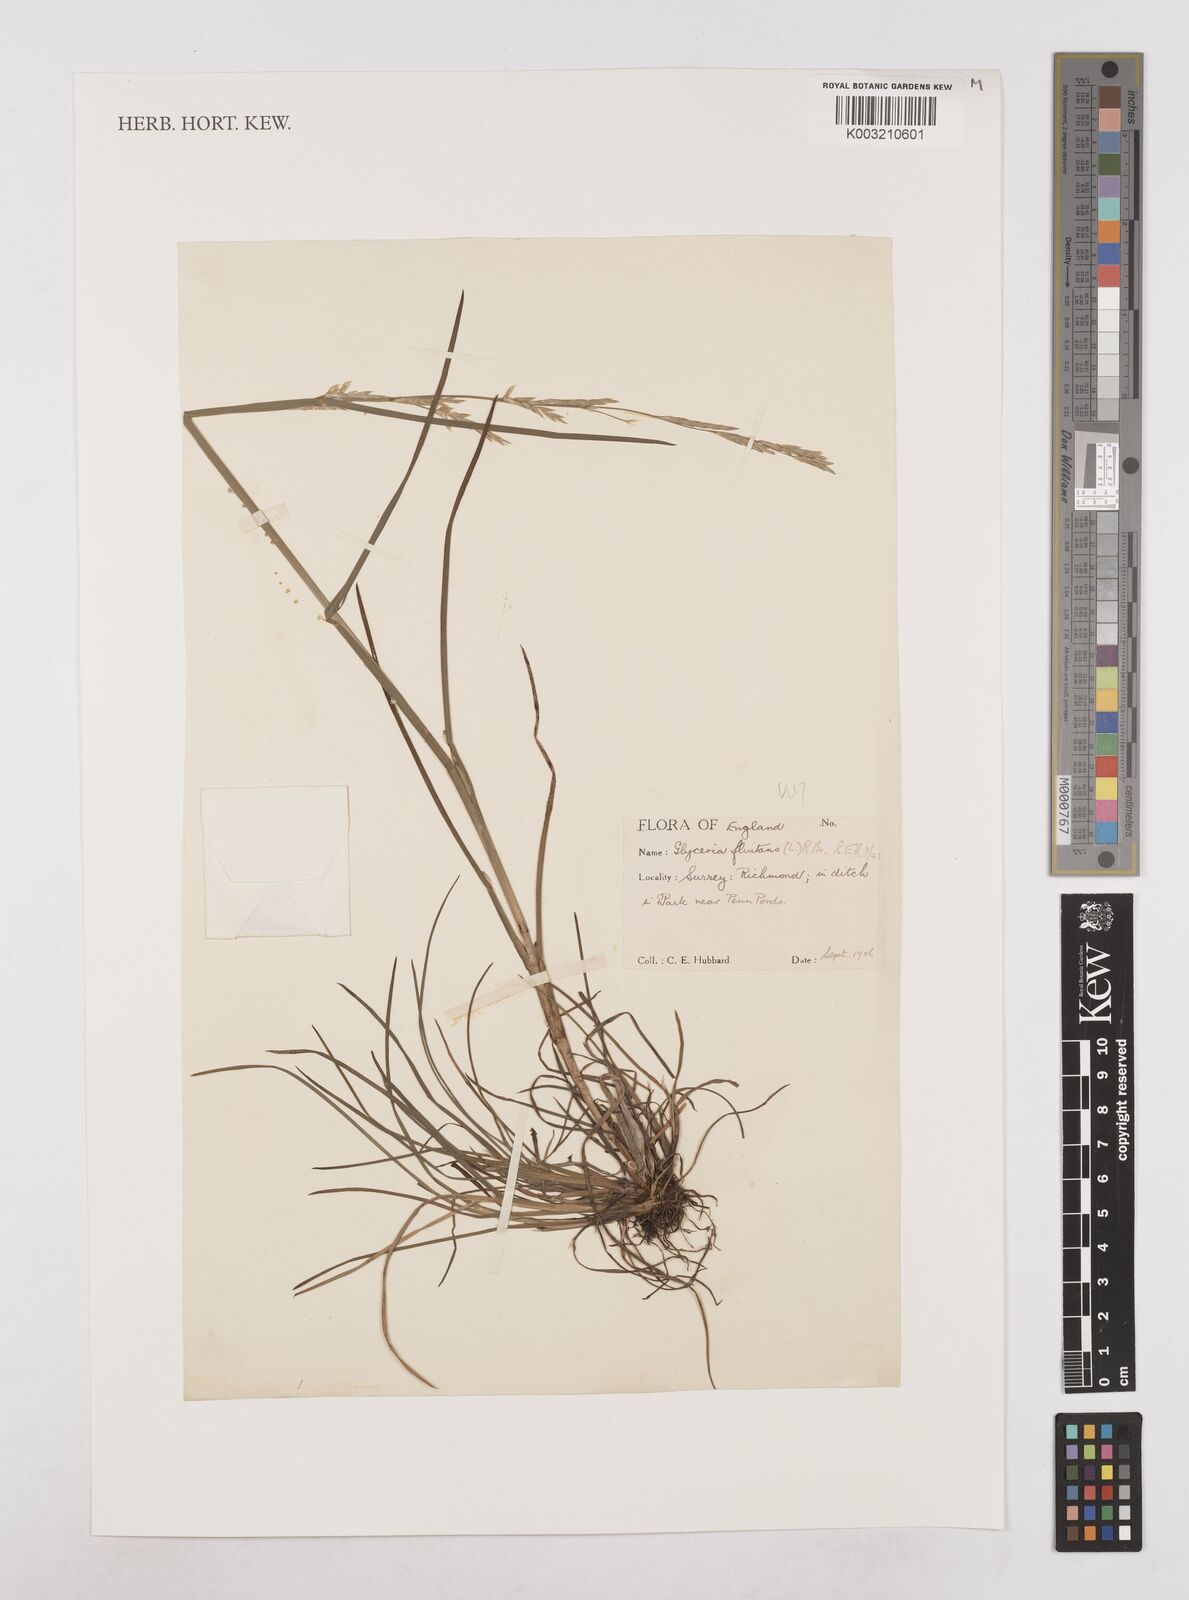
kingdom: Plantae
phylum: Tracheophyta
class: Liliopsida
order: Poales
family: Poaceae
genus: Glyceria
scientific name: Glyceria fluitans
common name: Floating sweet-grass
